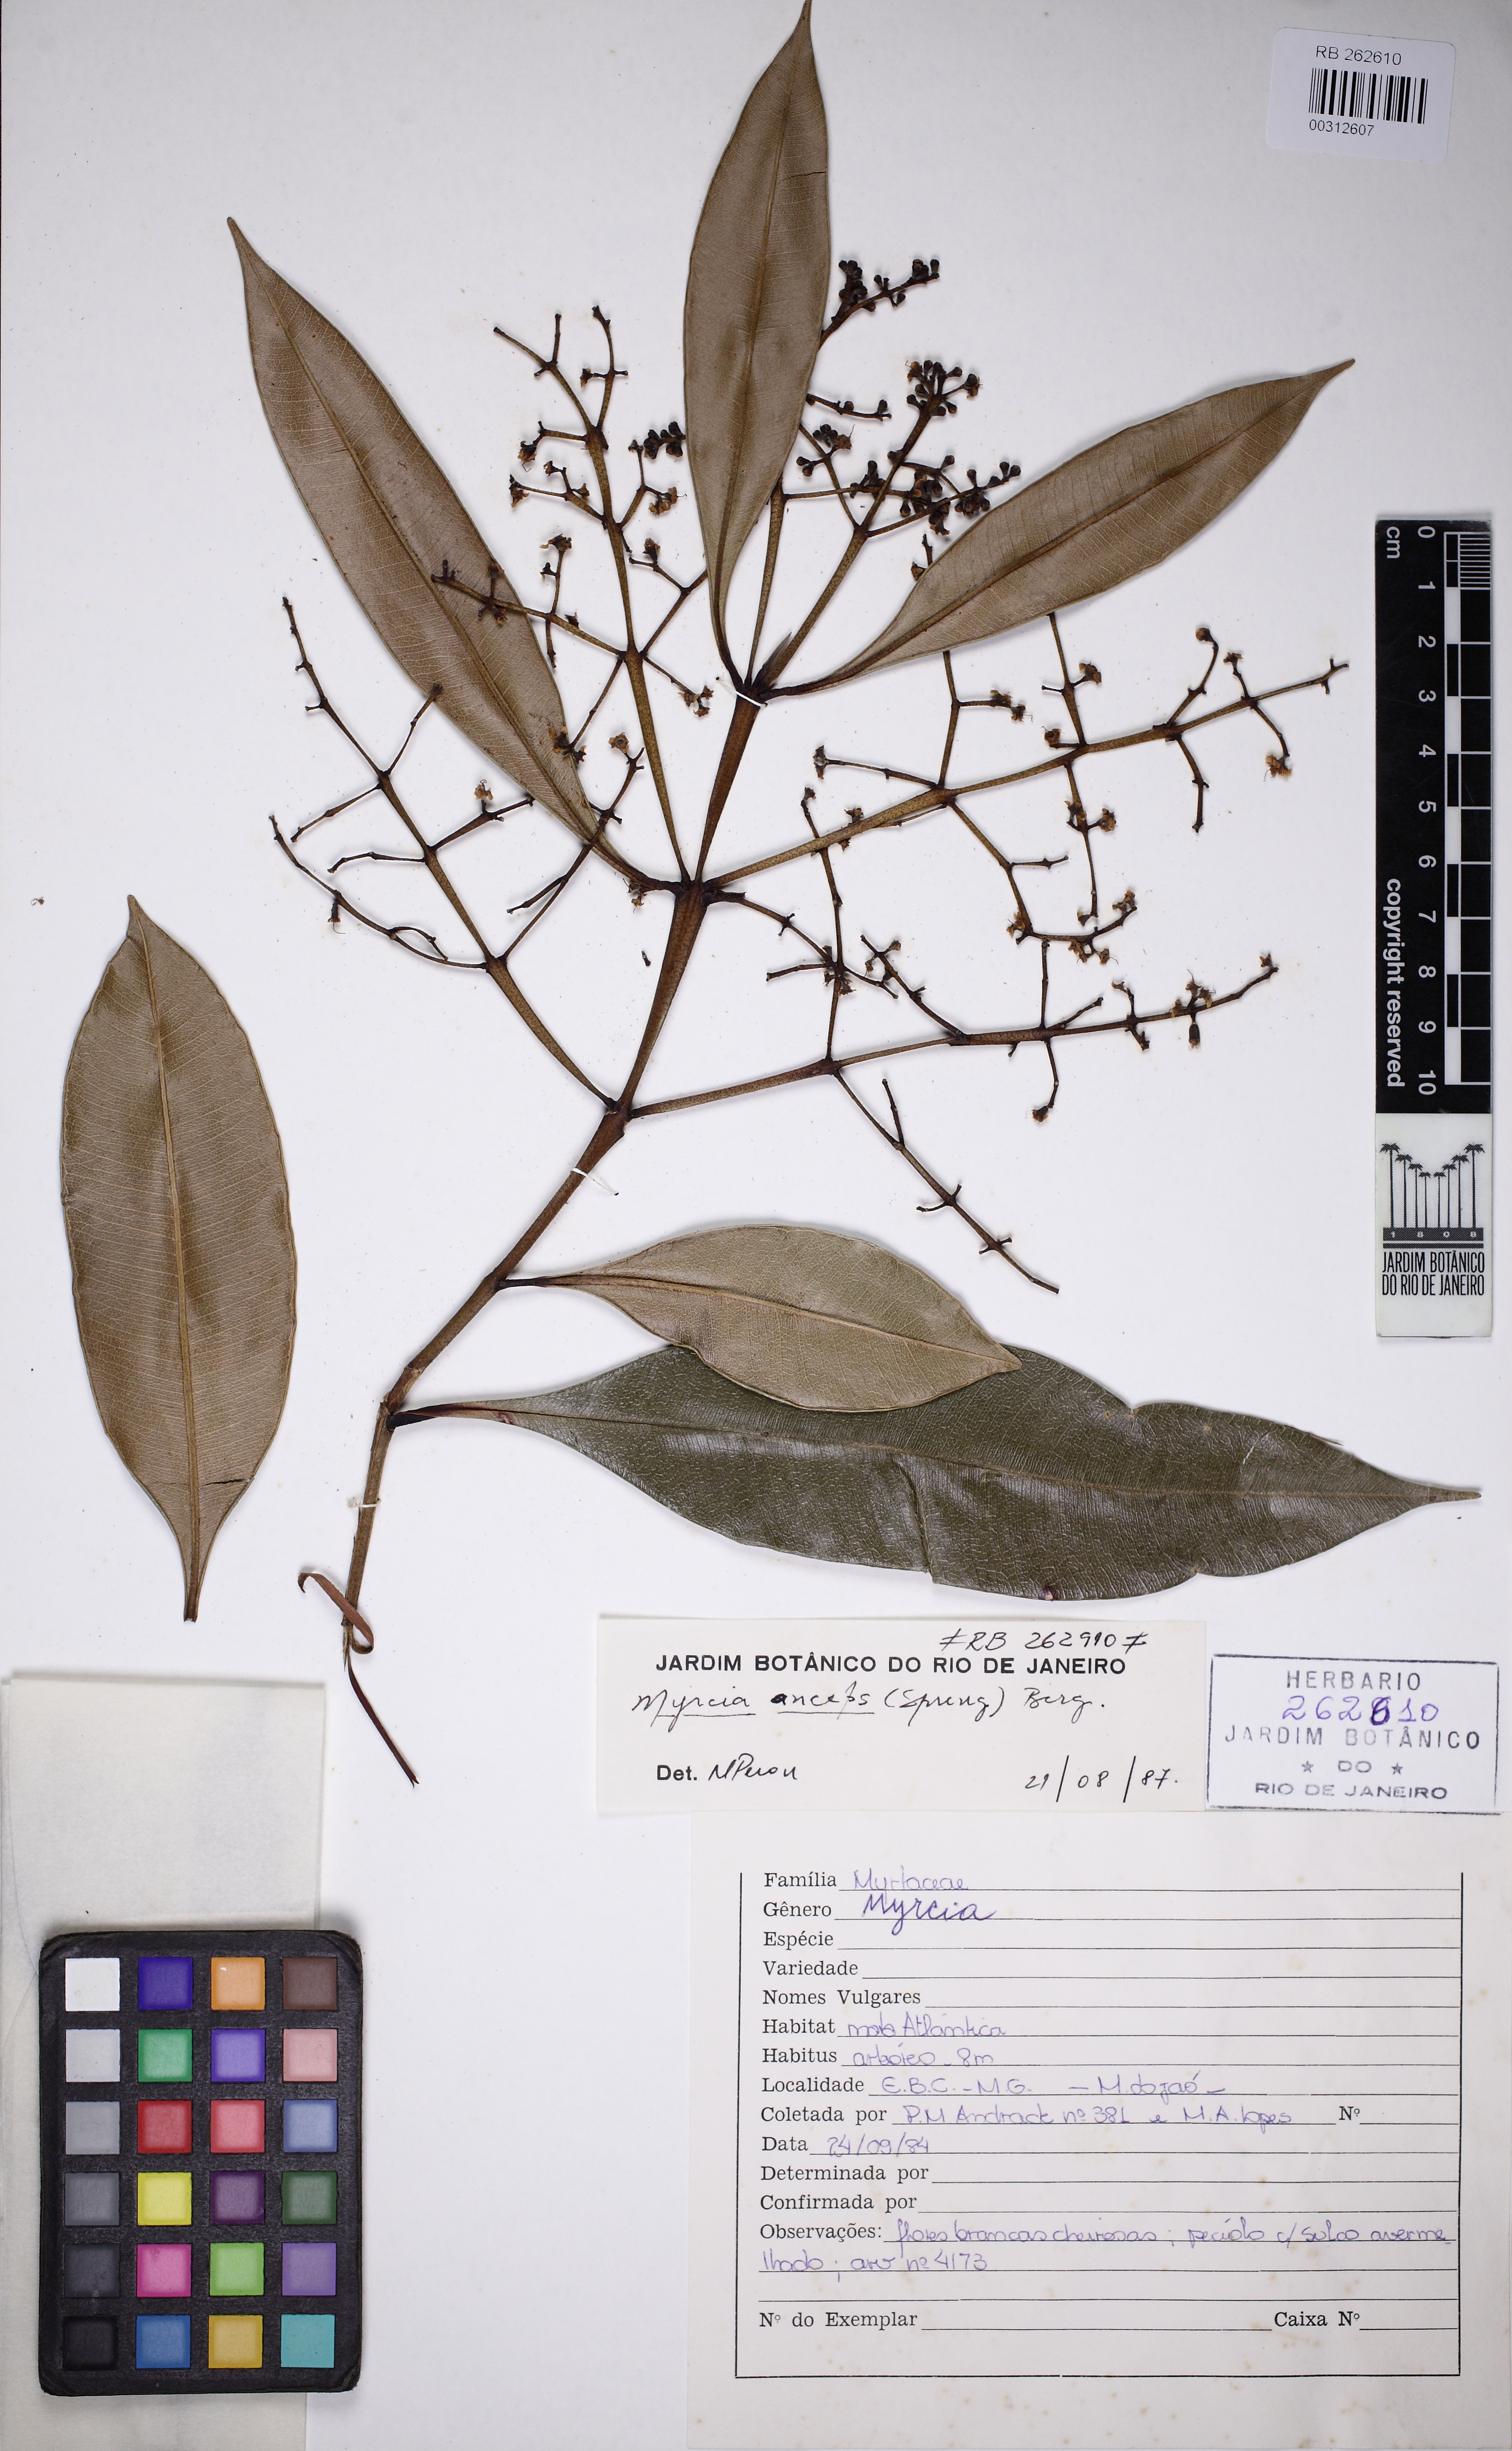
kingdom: Plantae
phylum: Tracheophyta
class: Magnoliopsida
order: Myrtales
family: Myrtaceae
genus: Myrcia
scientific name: Myrcia
